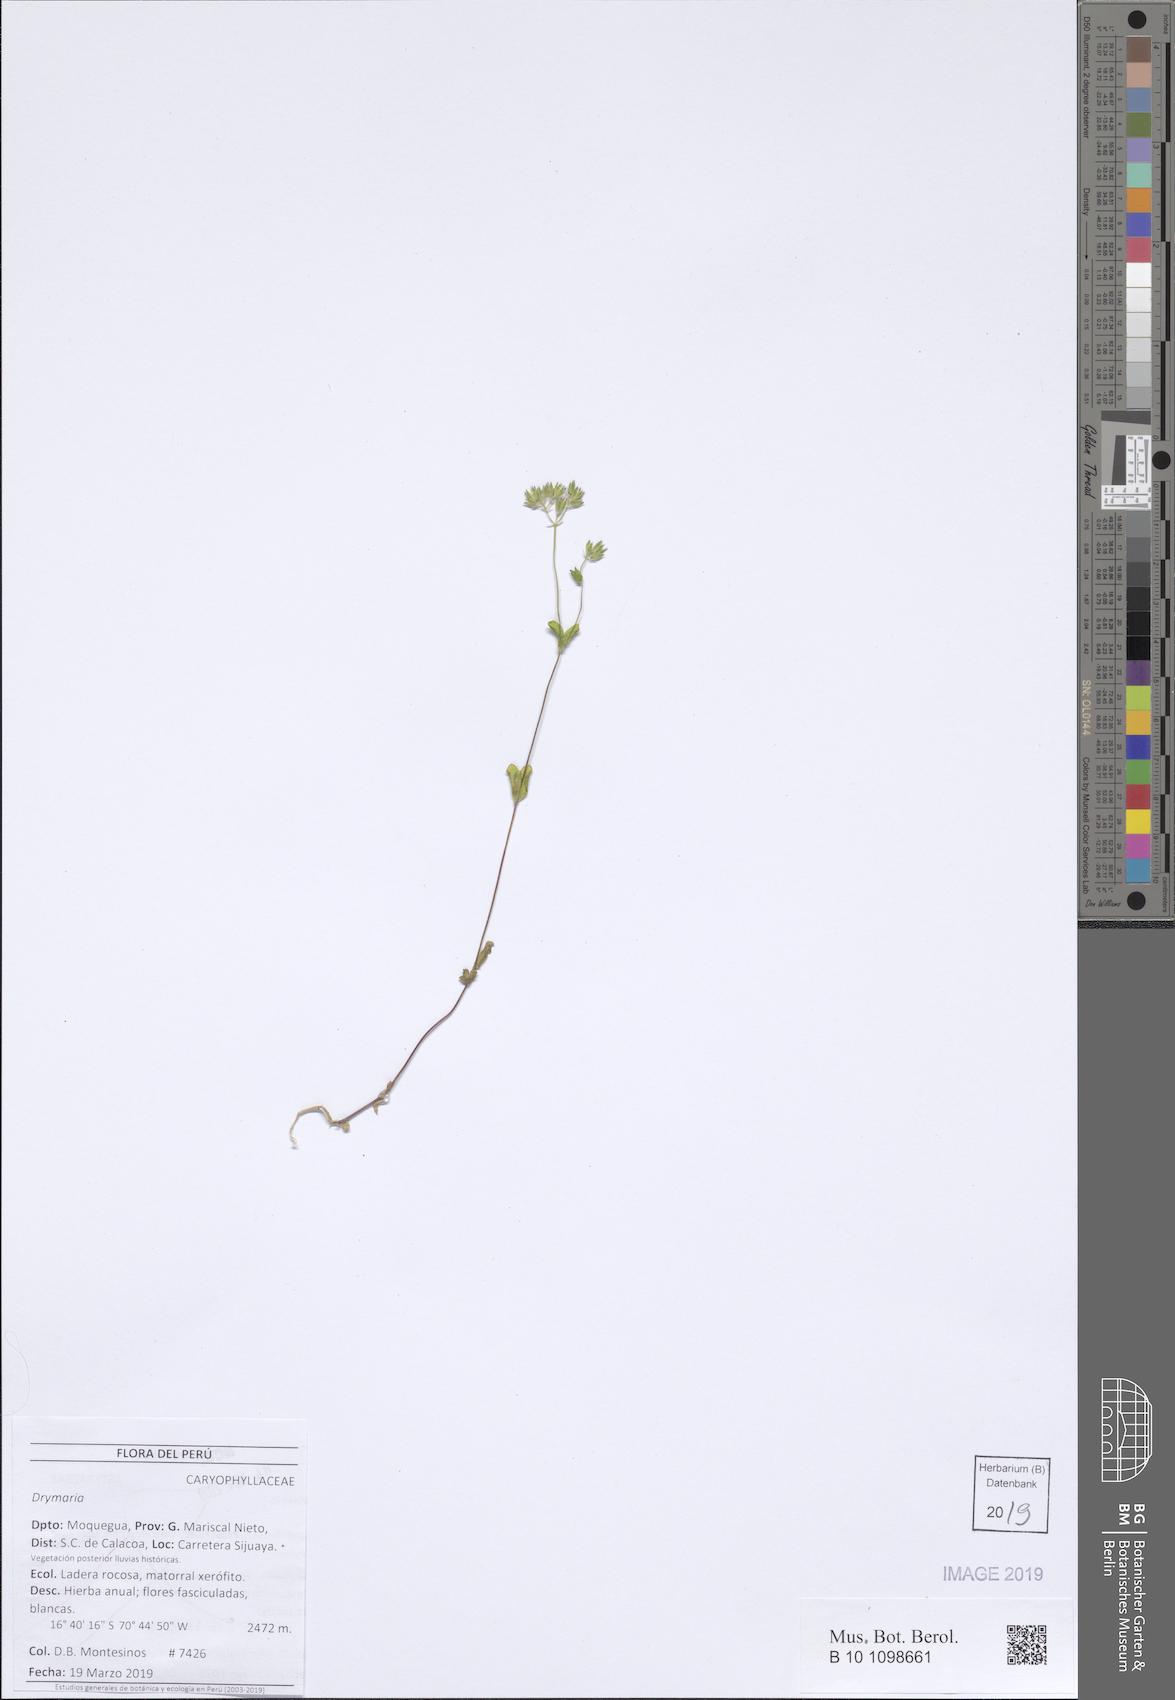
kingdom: Plantae
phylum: Tracheophyta
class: Magnoliopsida
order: Caryophyllales
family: Caryophyllaceae
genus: Drymaria
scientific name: Drymaria
